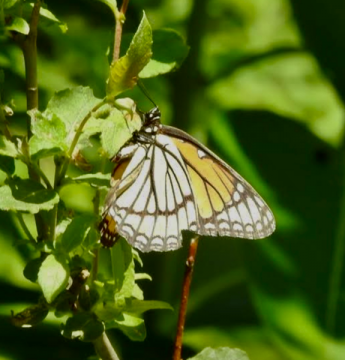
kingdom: Animalia
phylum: Arthropoda
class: Insecta
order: Lepidoptera
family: Nymphalidae
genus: Limenitis
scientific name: Limenitis archippus
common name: Viceroy
